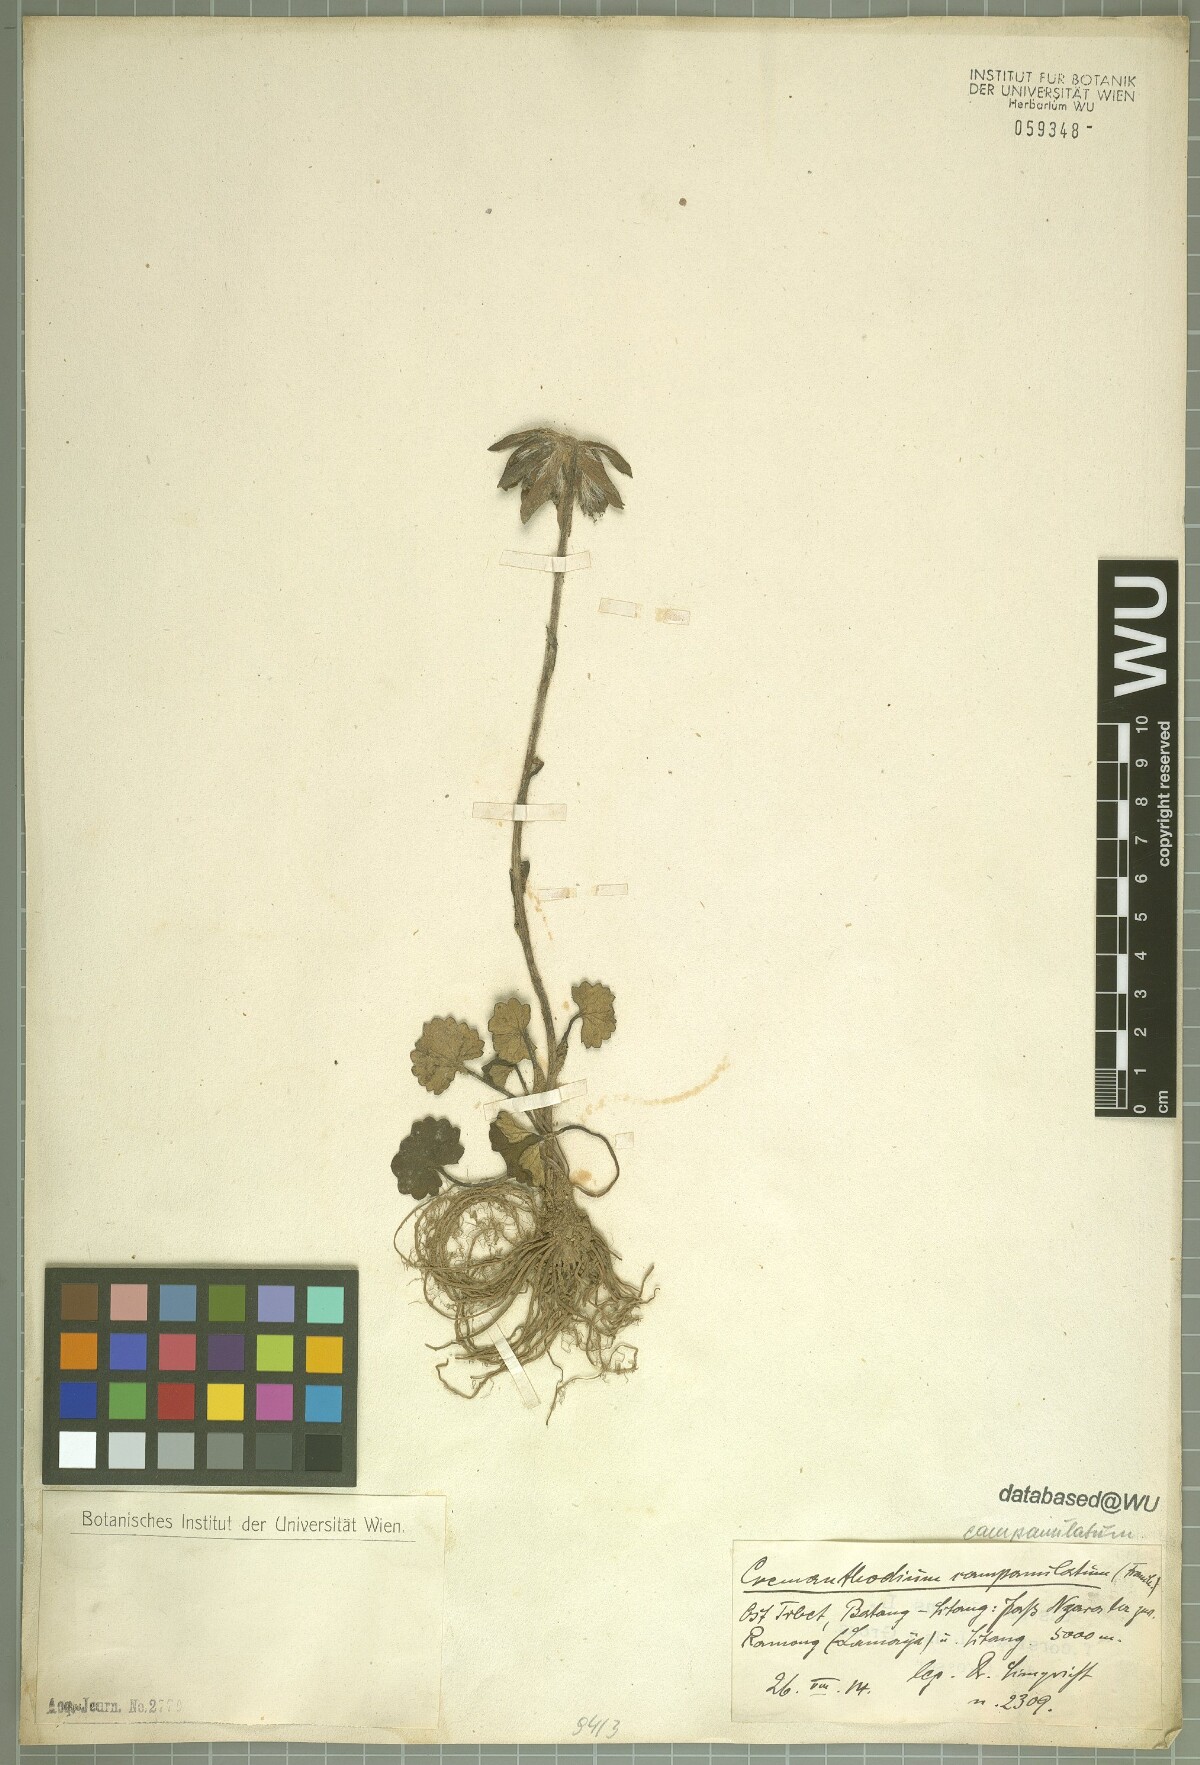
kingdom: Plantae
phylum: Tracheophyta
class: Magnoliopsida
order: Asterales
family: Asteraceae
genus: Cremanthodium
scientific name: Cremanthodium campanulatum
